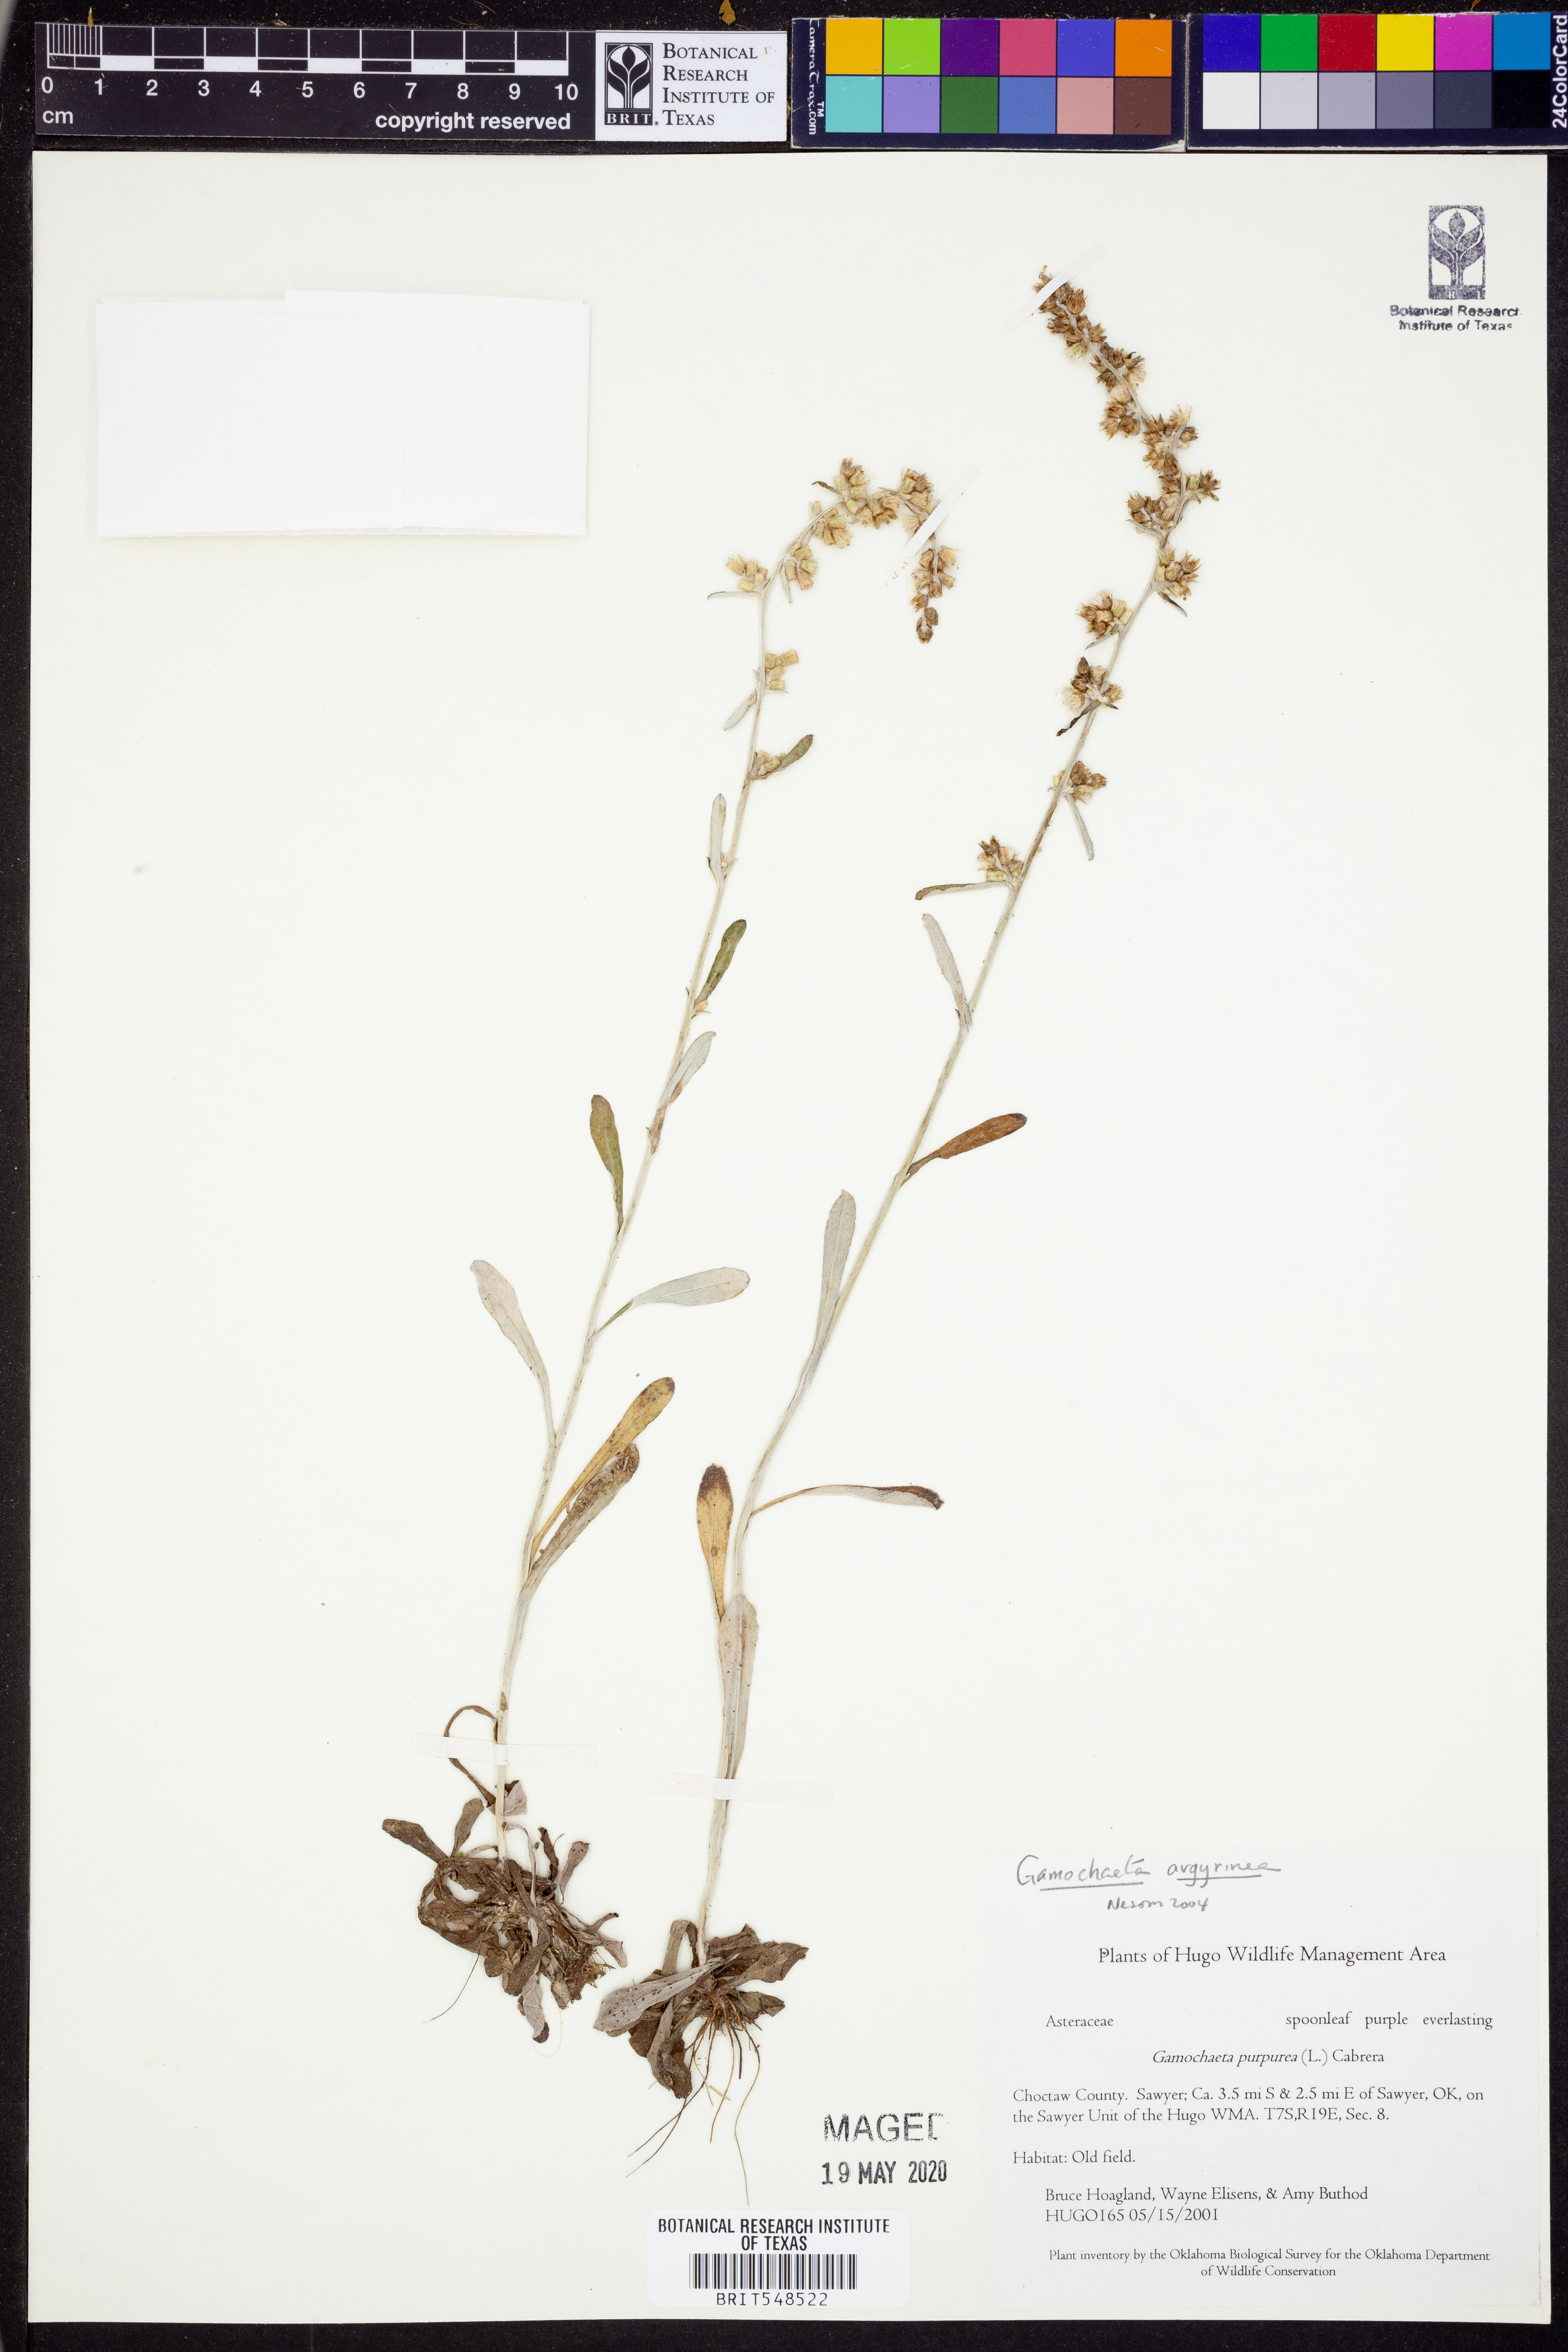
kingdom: Plantae
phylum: Tracheophyta
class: Magnoliopsida
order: Asterales
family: Asteraceae
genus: Gamochaeta
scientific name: Gamochaeta argyrinea
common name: Silvery cudweed
